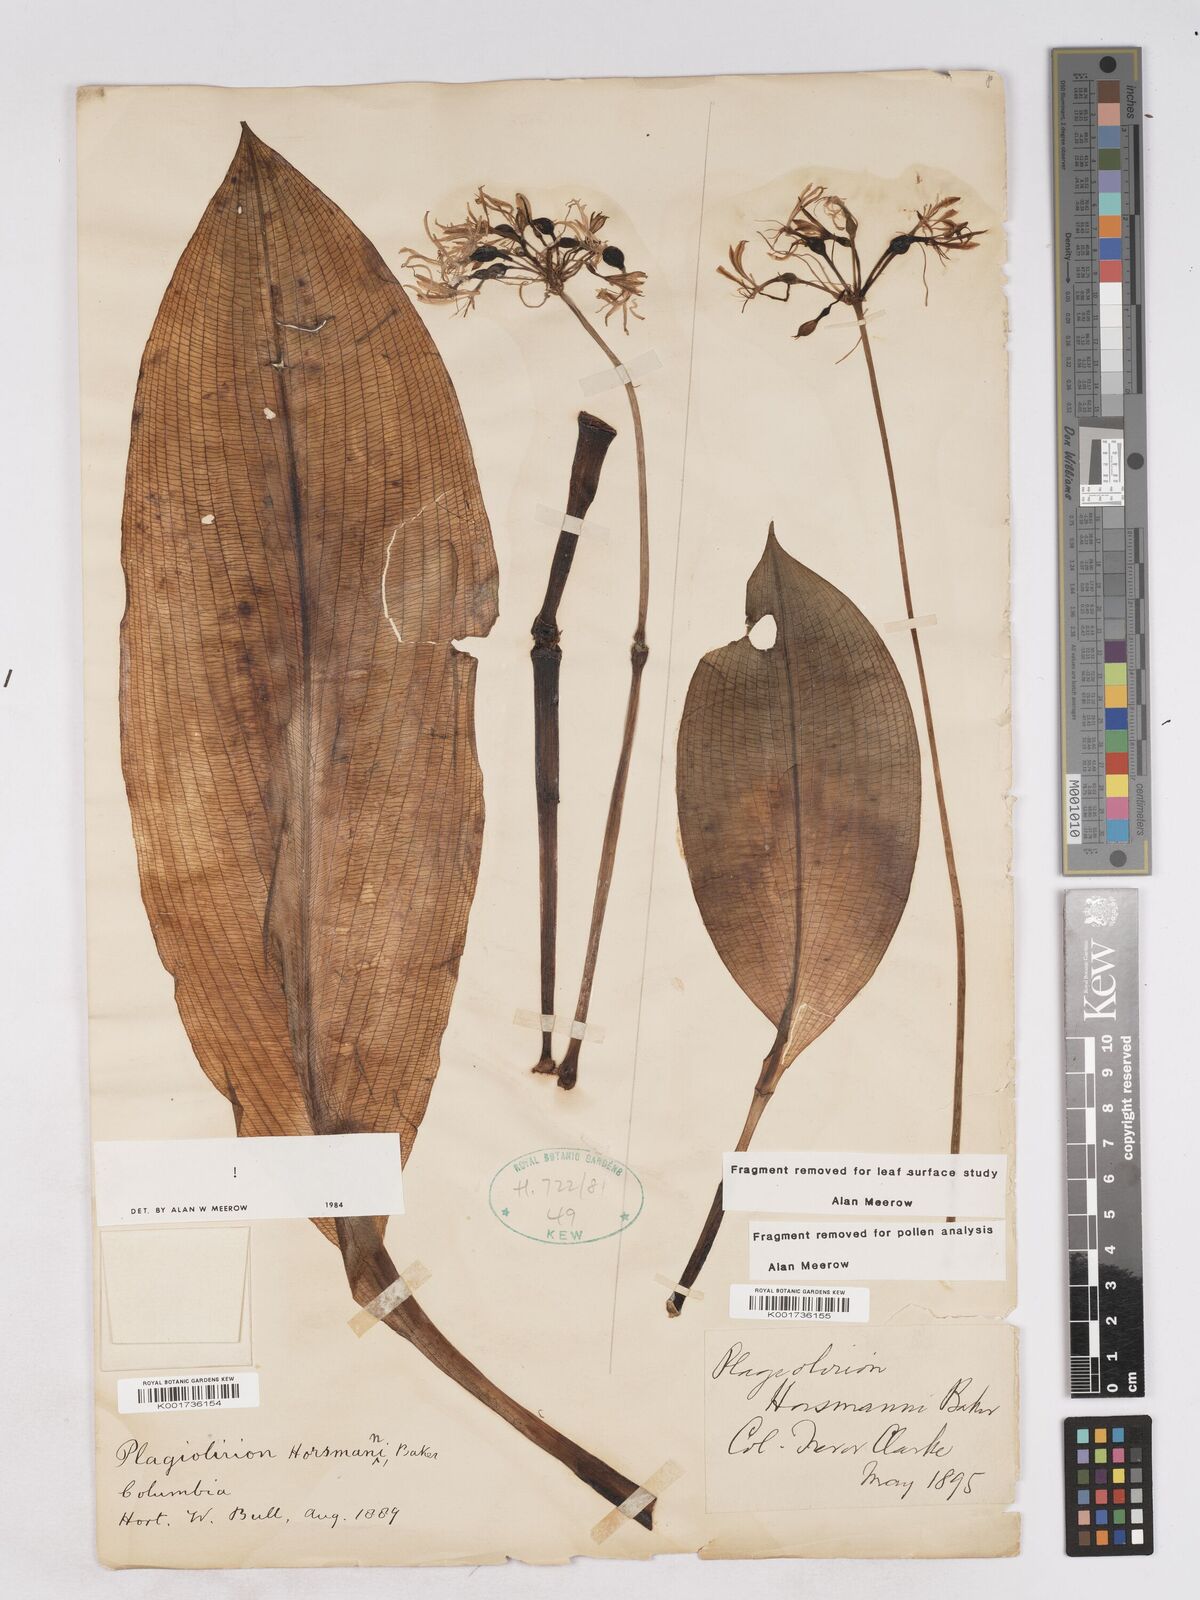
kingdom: Plantae
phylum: Tracheophyta
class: Liliopsida
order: Asparagales
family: Amaryllidaceae
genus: Plagiolirion
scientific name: Plagiolirion horsmannii
